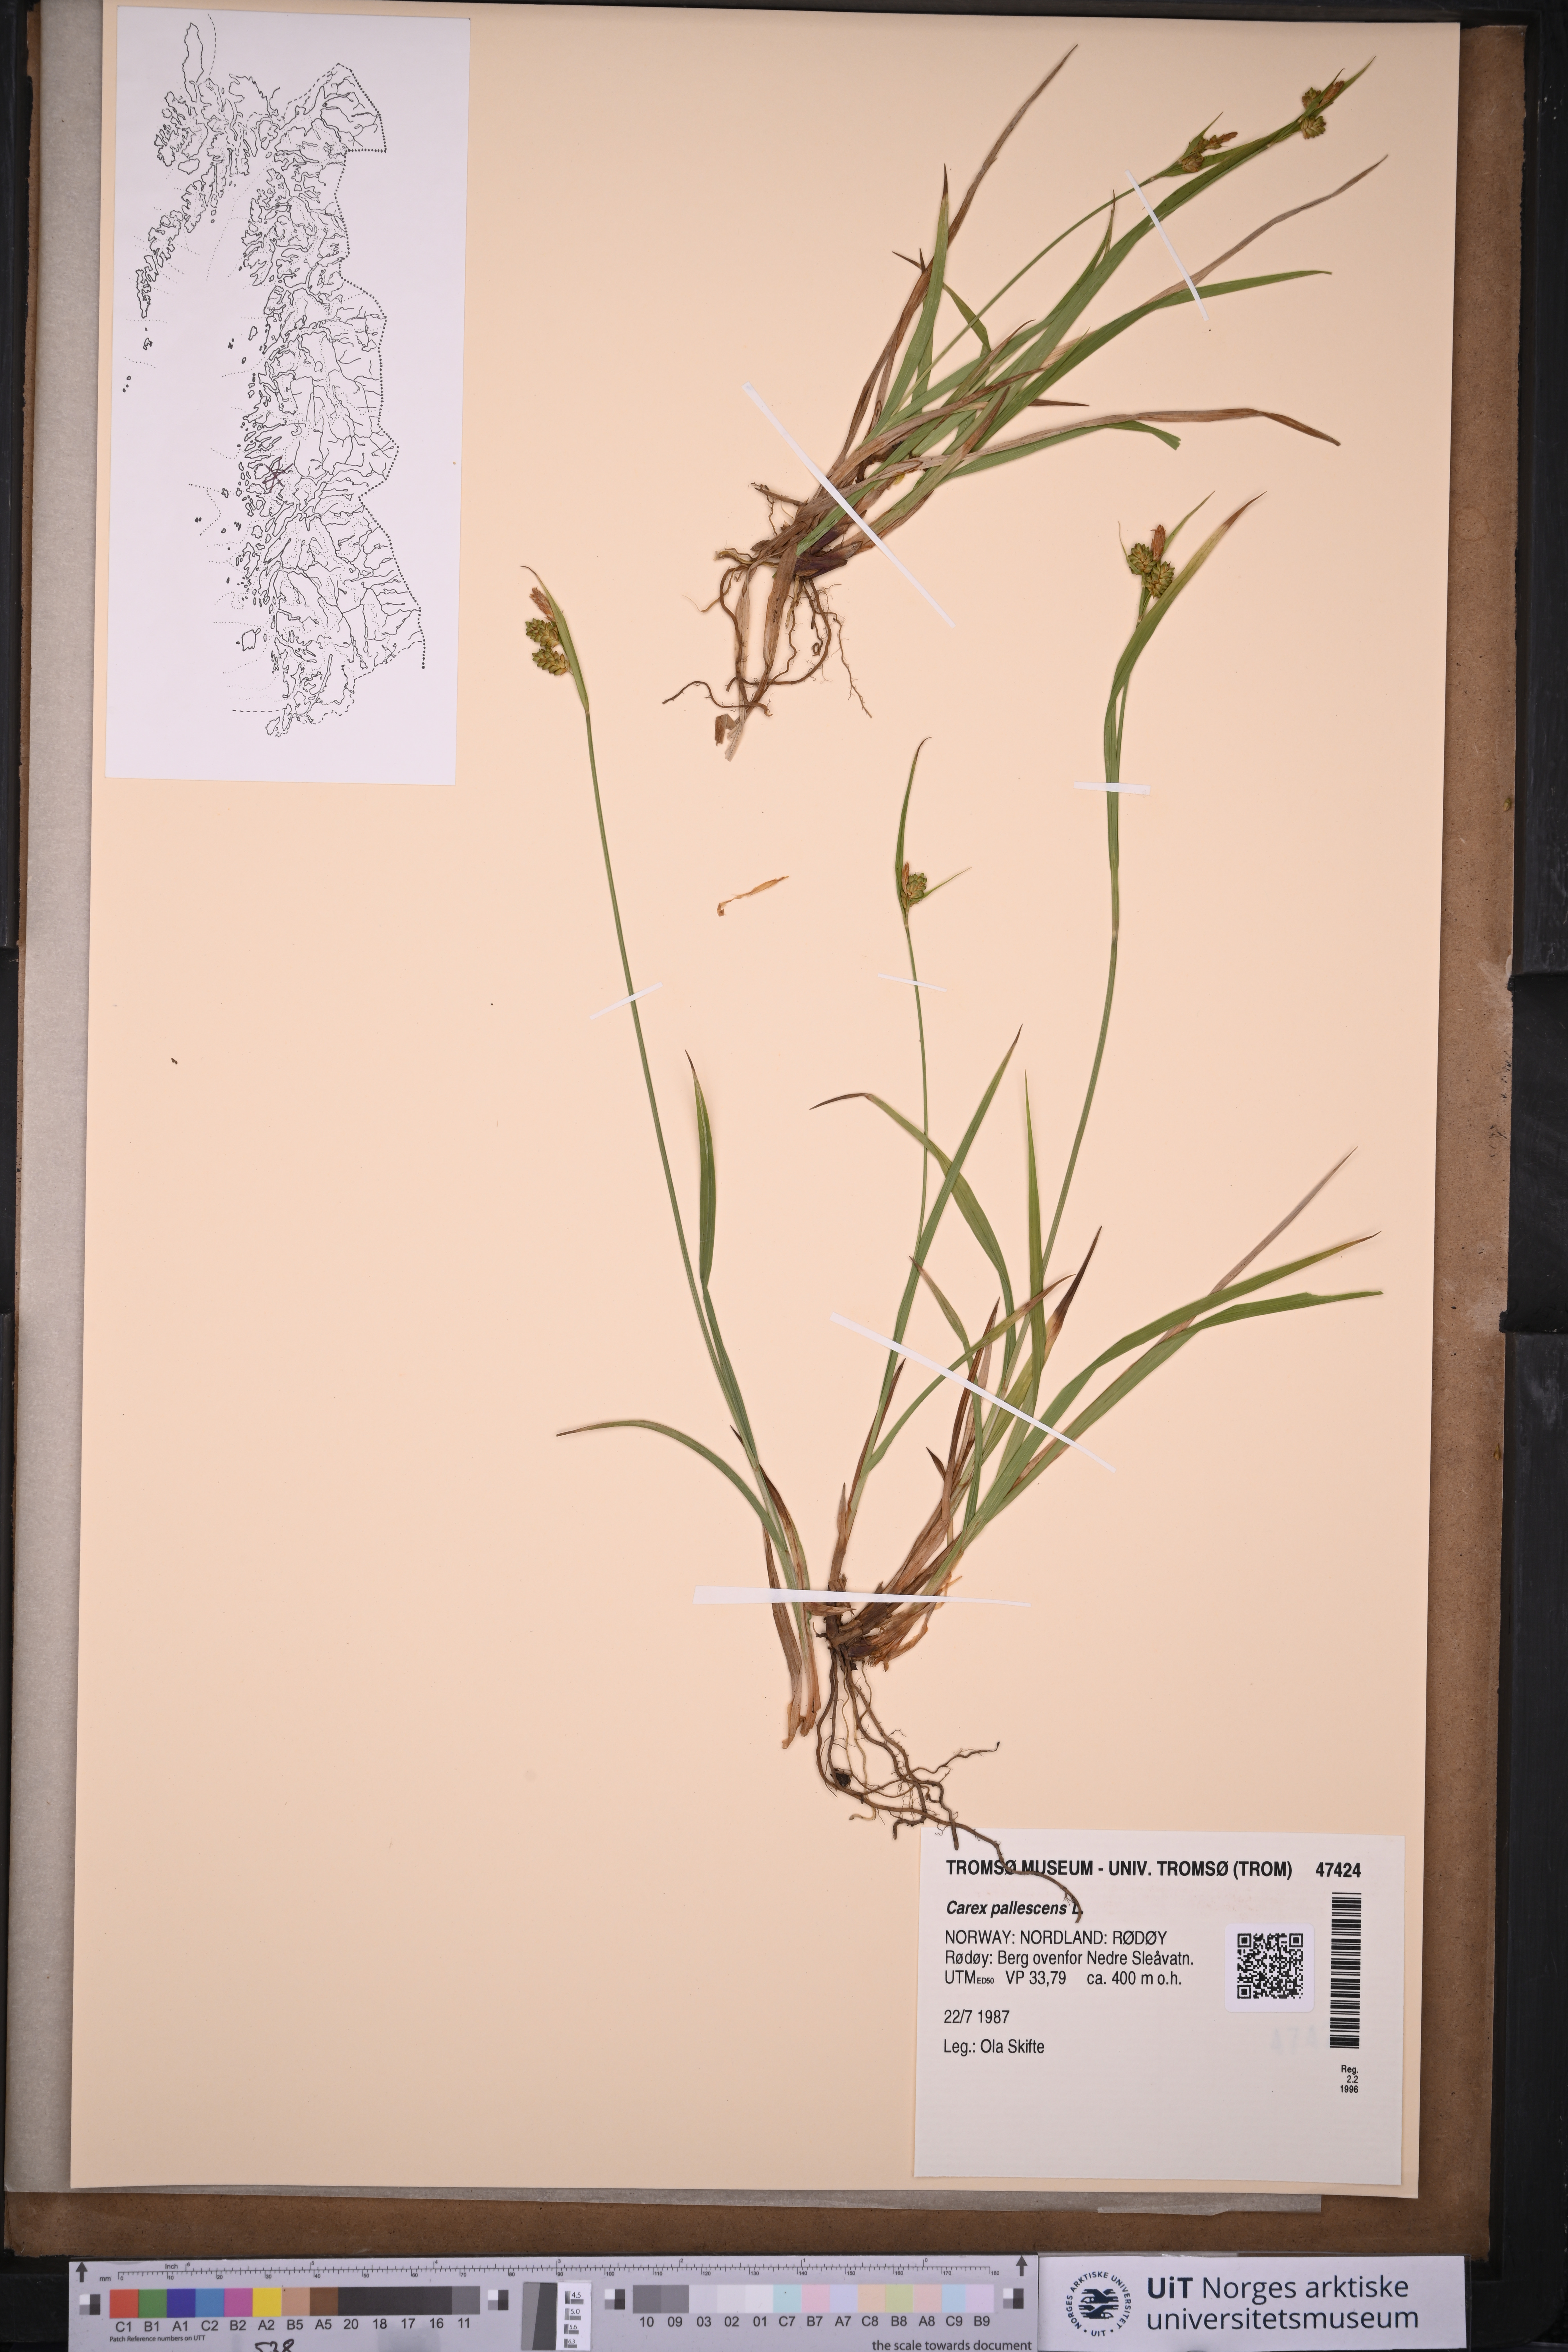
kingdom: Plantae
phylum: Tracheophyta
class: Liliopsida
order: Poales
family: Cyperaceae
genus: Carex
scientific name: Carex pallescens
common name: Pale sedge
